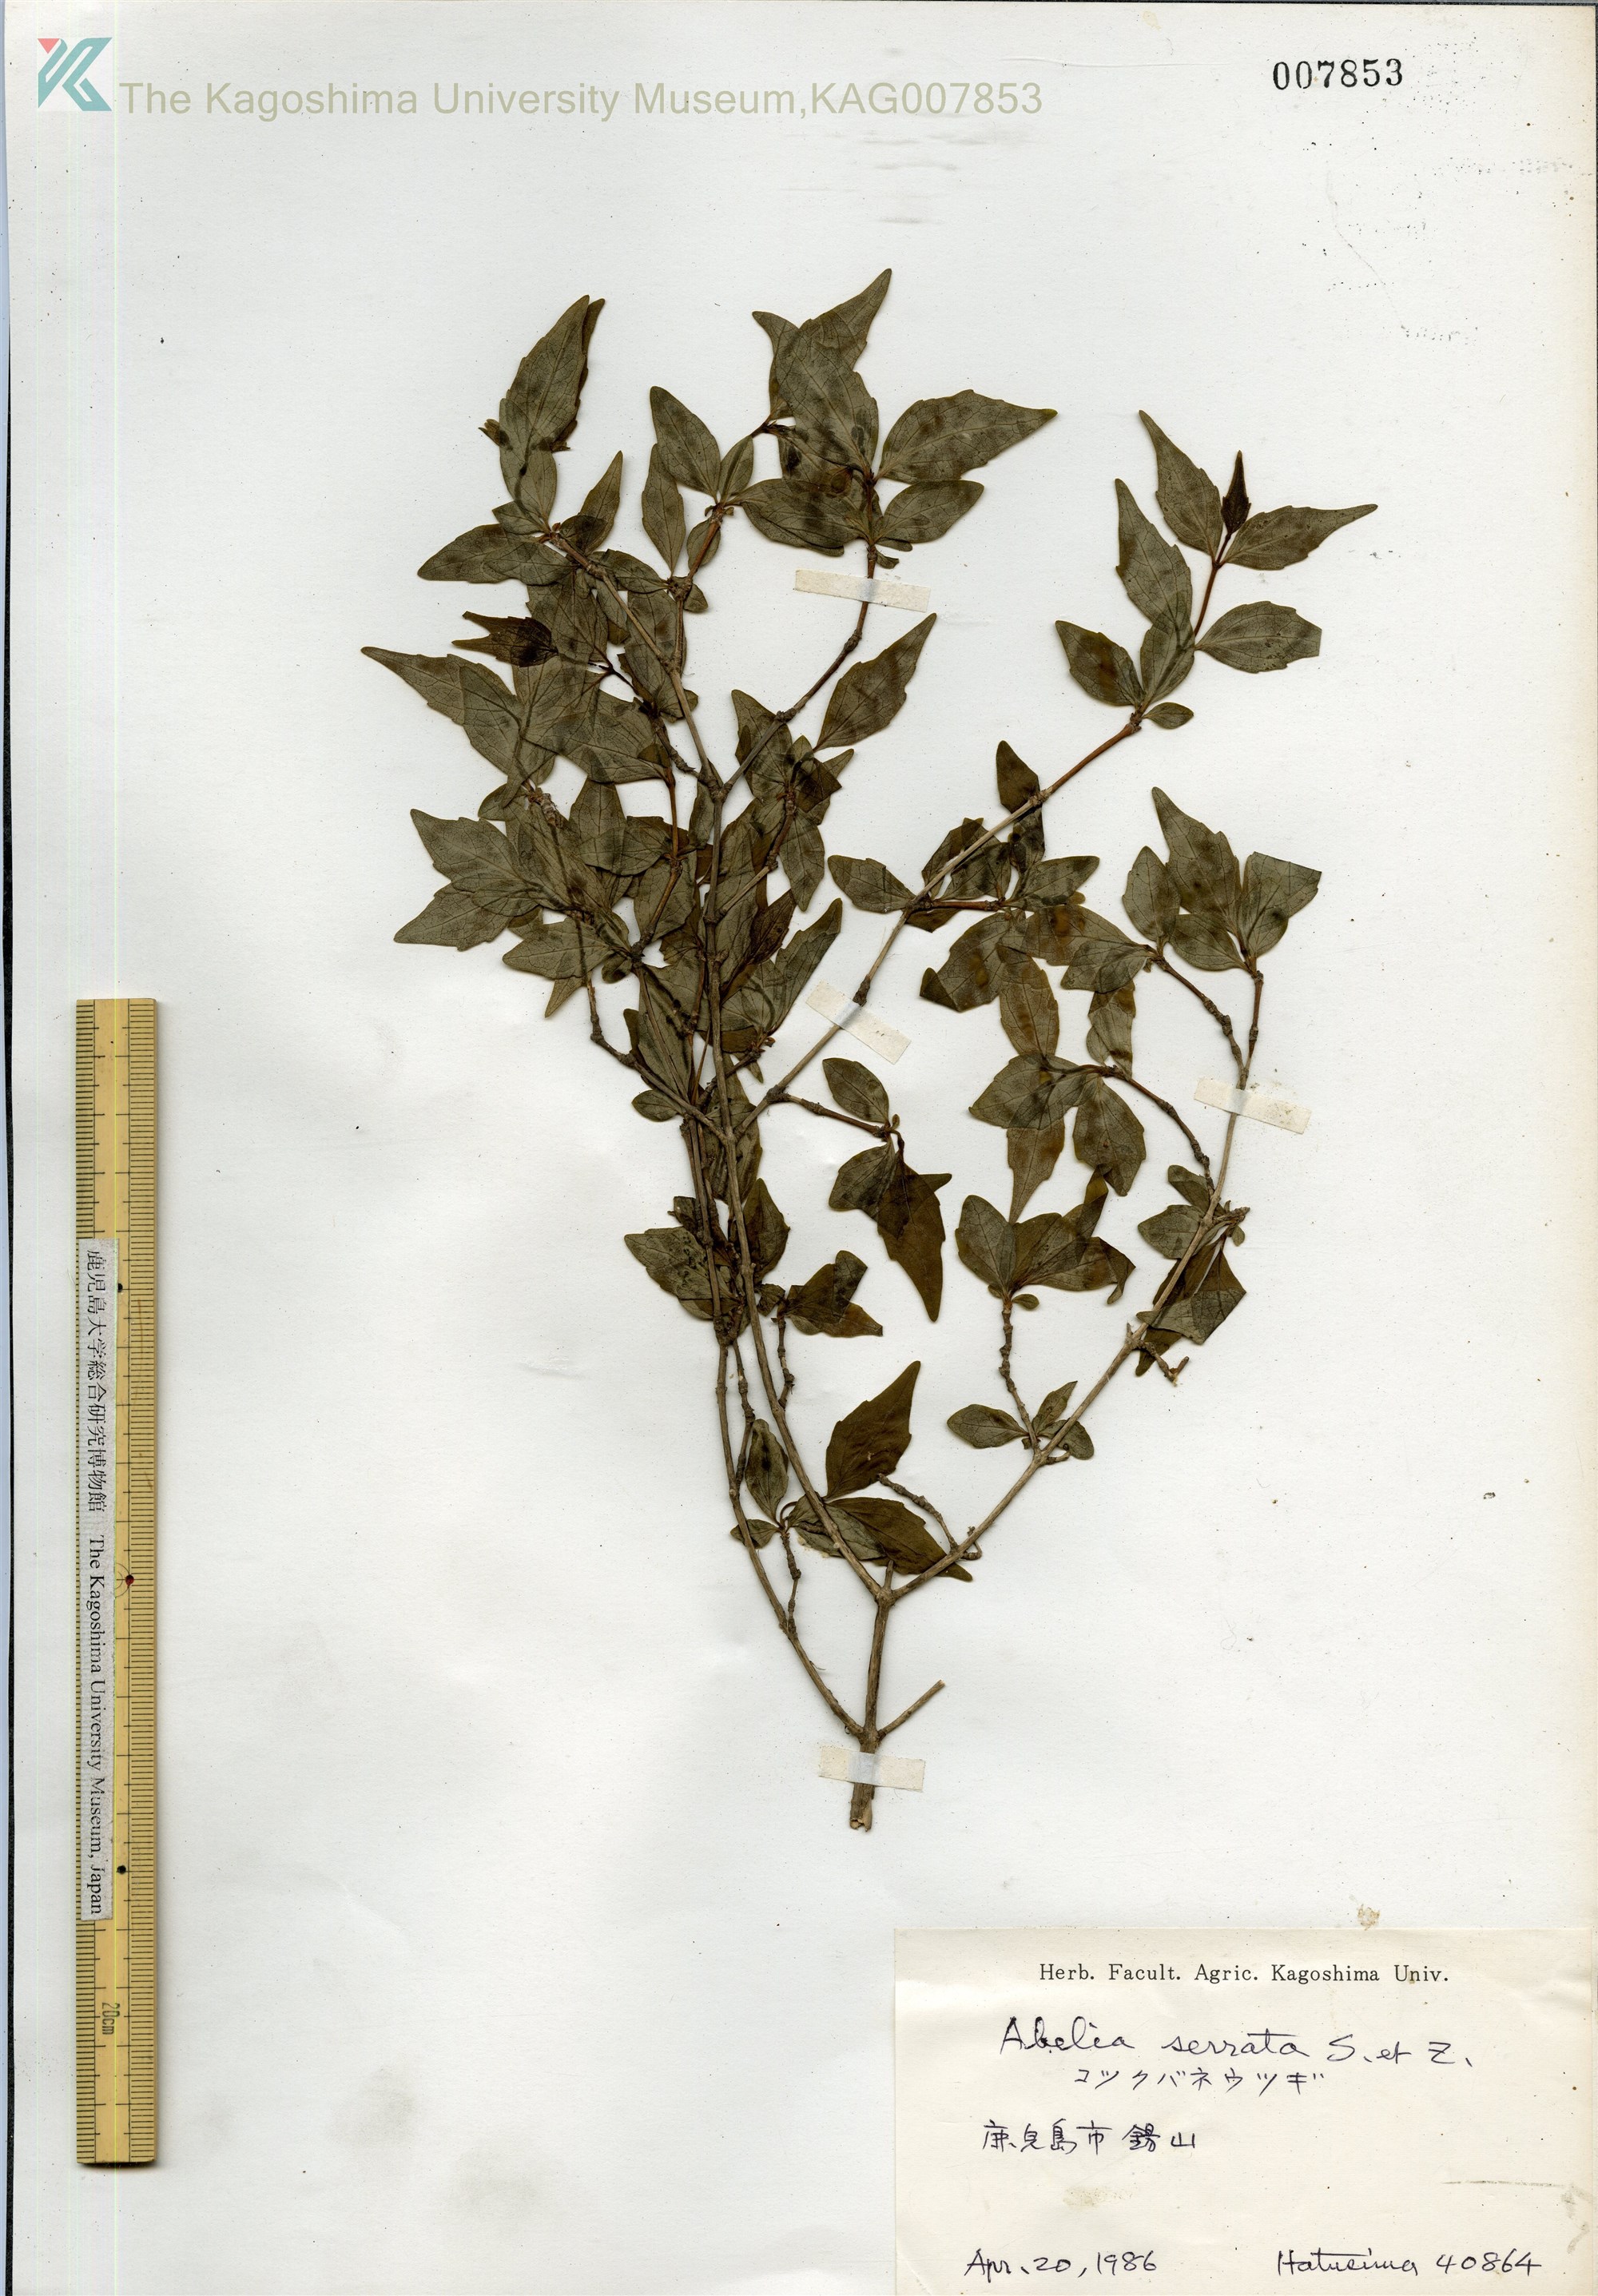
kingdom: Plantae
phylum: Tracheophyta
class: Magnoliopsida
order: Dipsacales
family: Caprifoliaceae
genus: Diabelia
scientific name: Diabelia serrata
